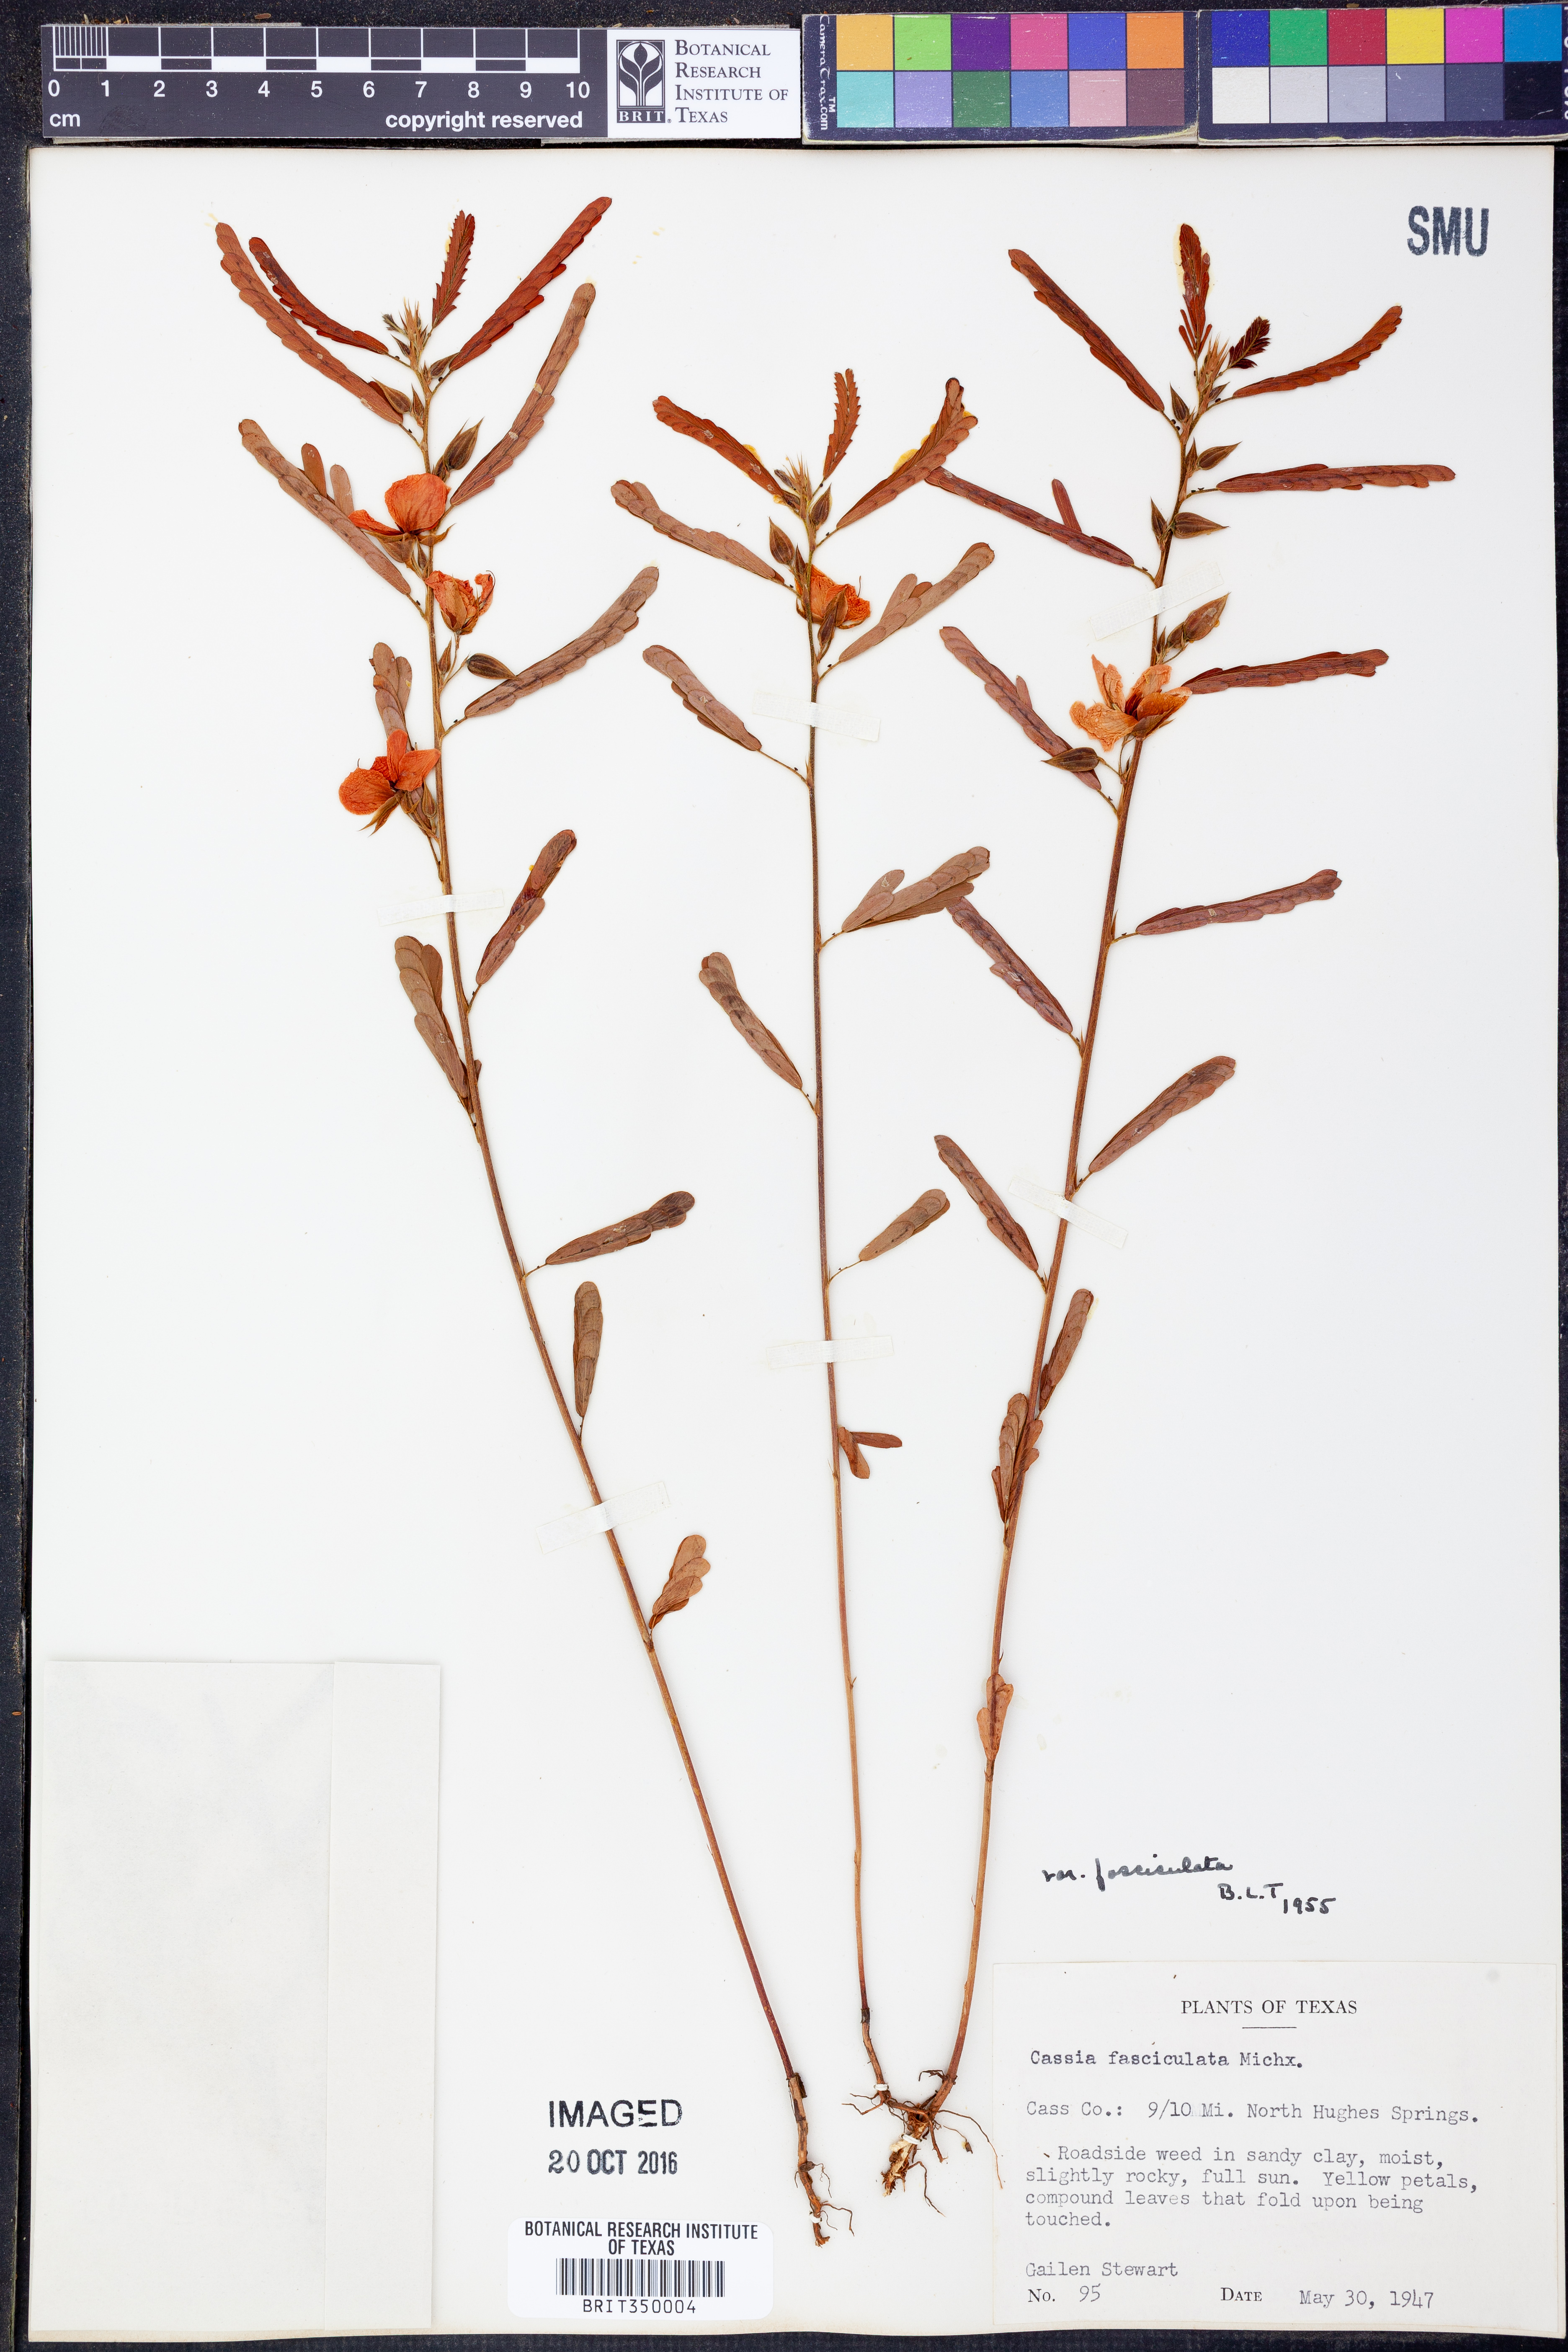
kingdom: Plantae
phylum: Tracheophyta
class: Magnoliopsida
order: Fabales
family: Fabaceae
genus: Chamaecrista
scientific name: Chamaecrista fasciculata
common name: Golden cassia
